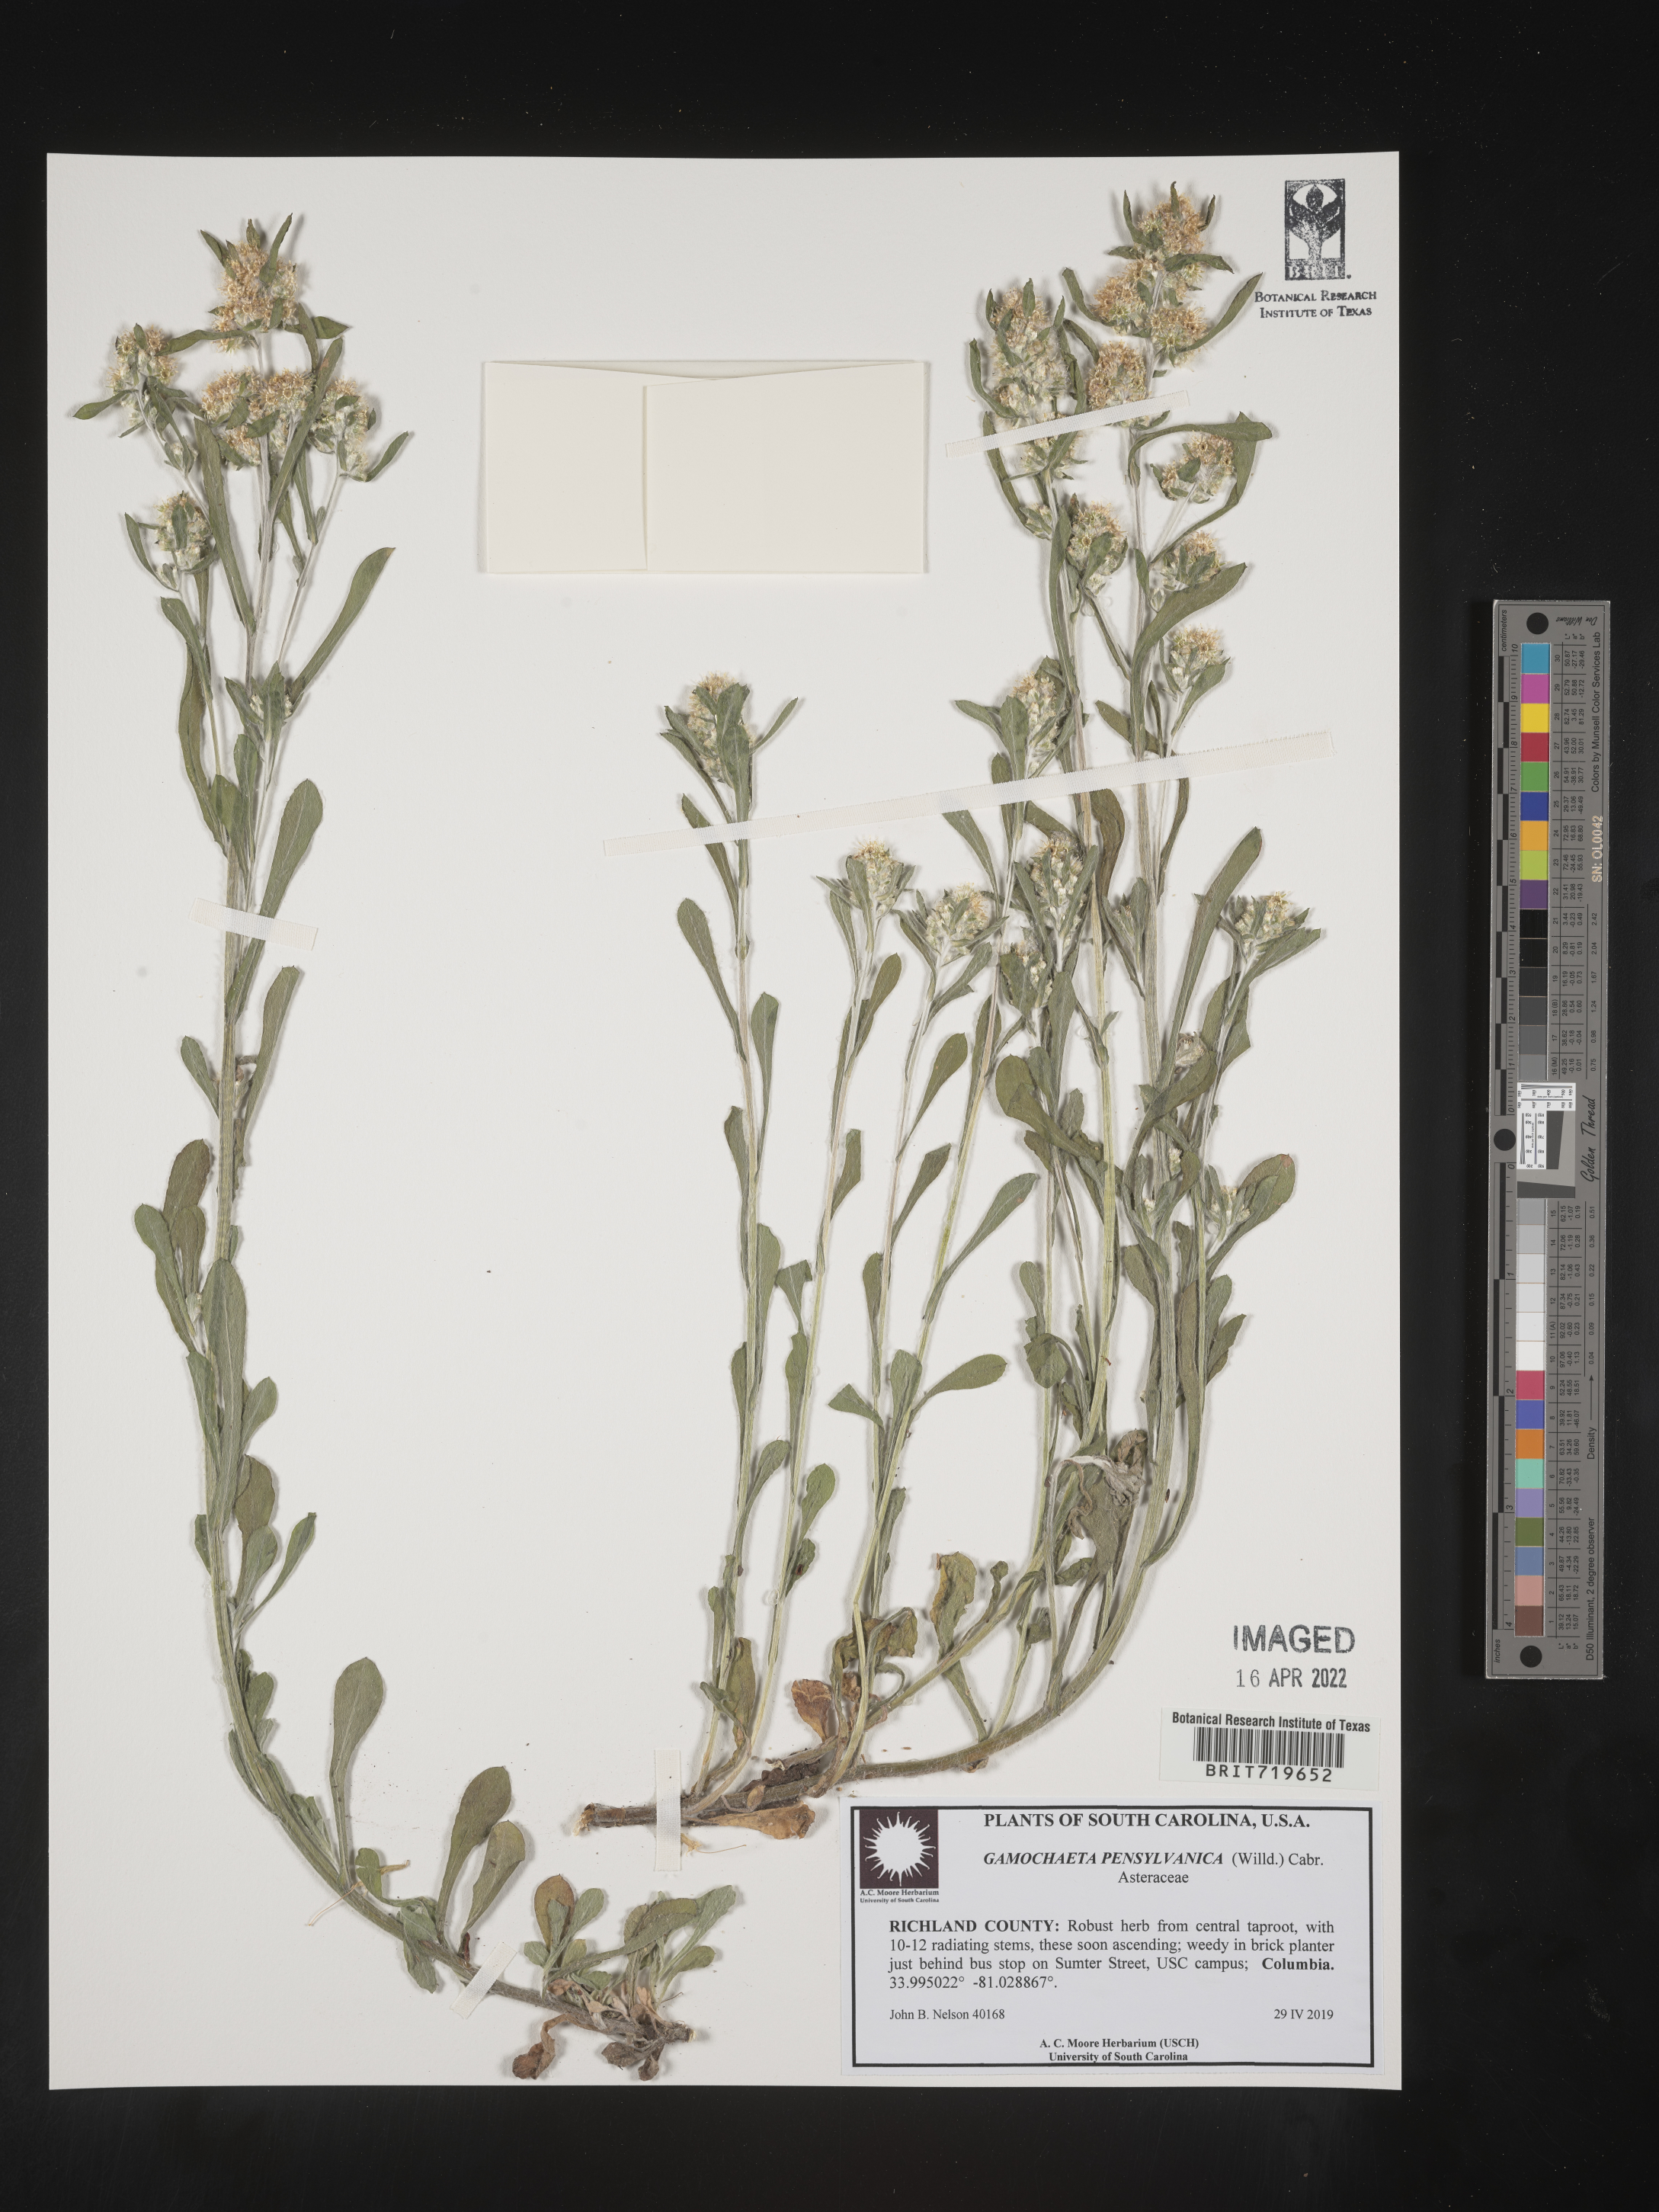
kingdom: Plantae
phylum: Tracheophyta
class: Magnoliopsida
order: Asterales
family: Asteraceae
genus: Gamochaeta
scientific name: Gamochaeta pensylvanica
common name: Pennsylvania everlasting
